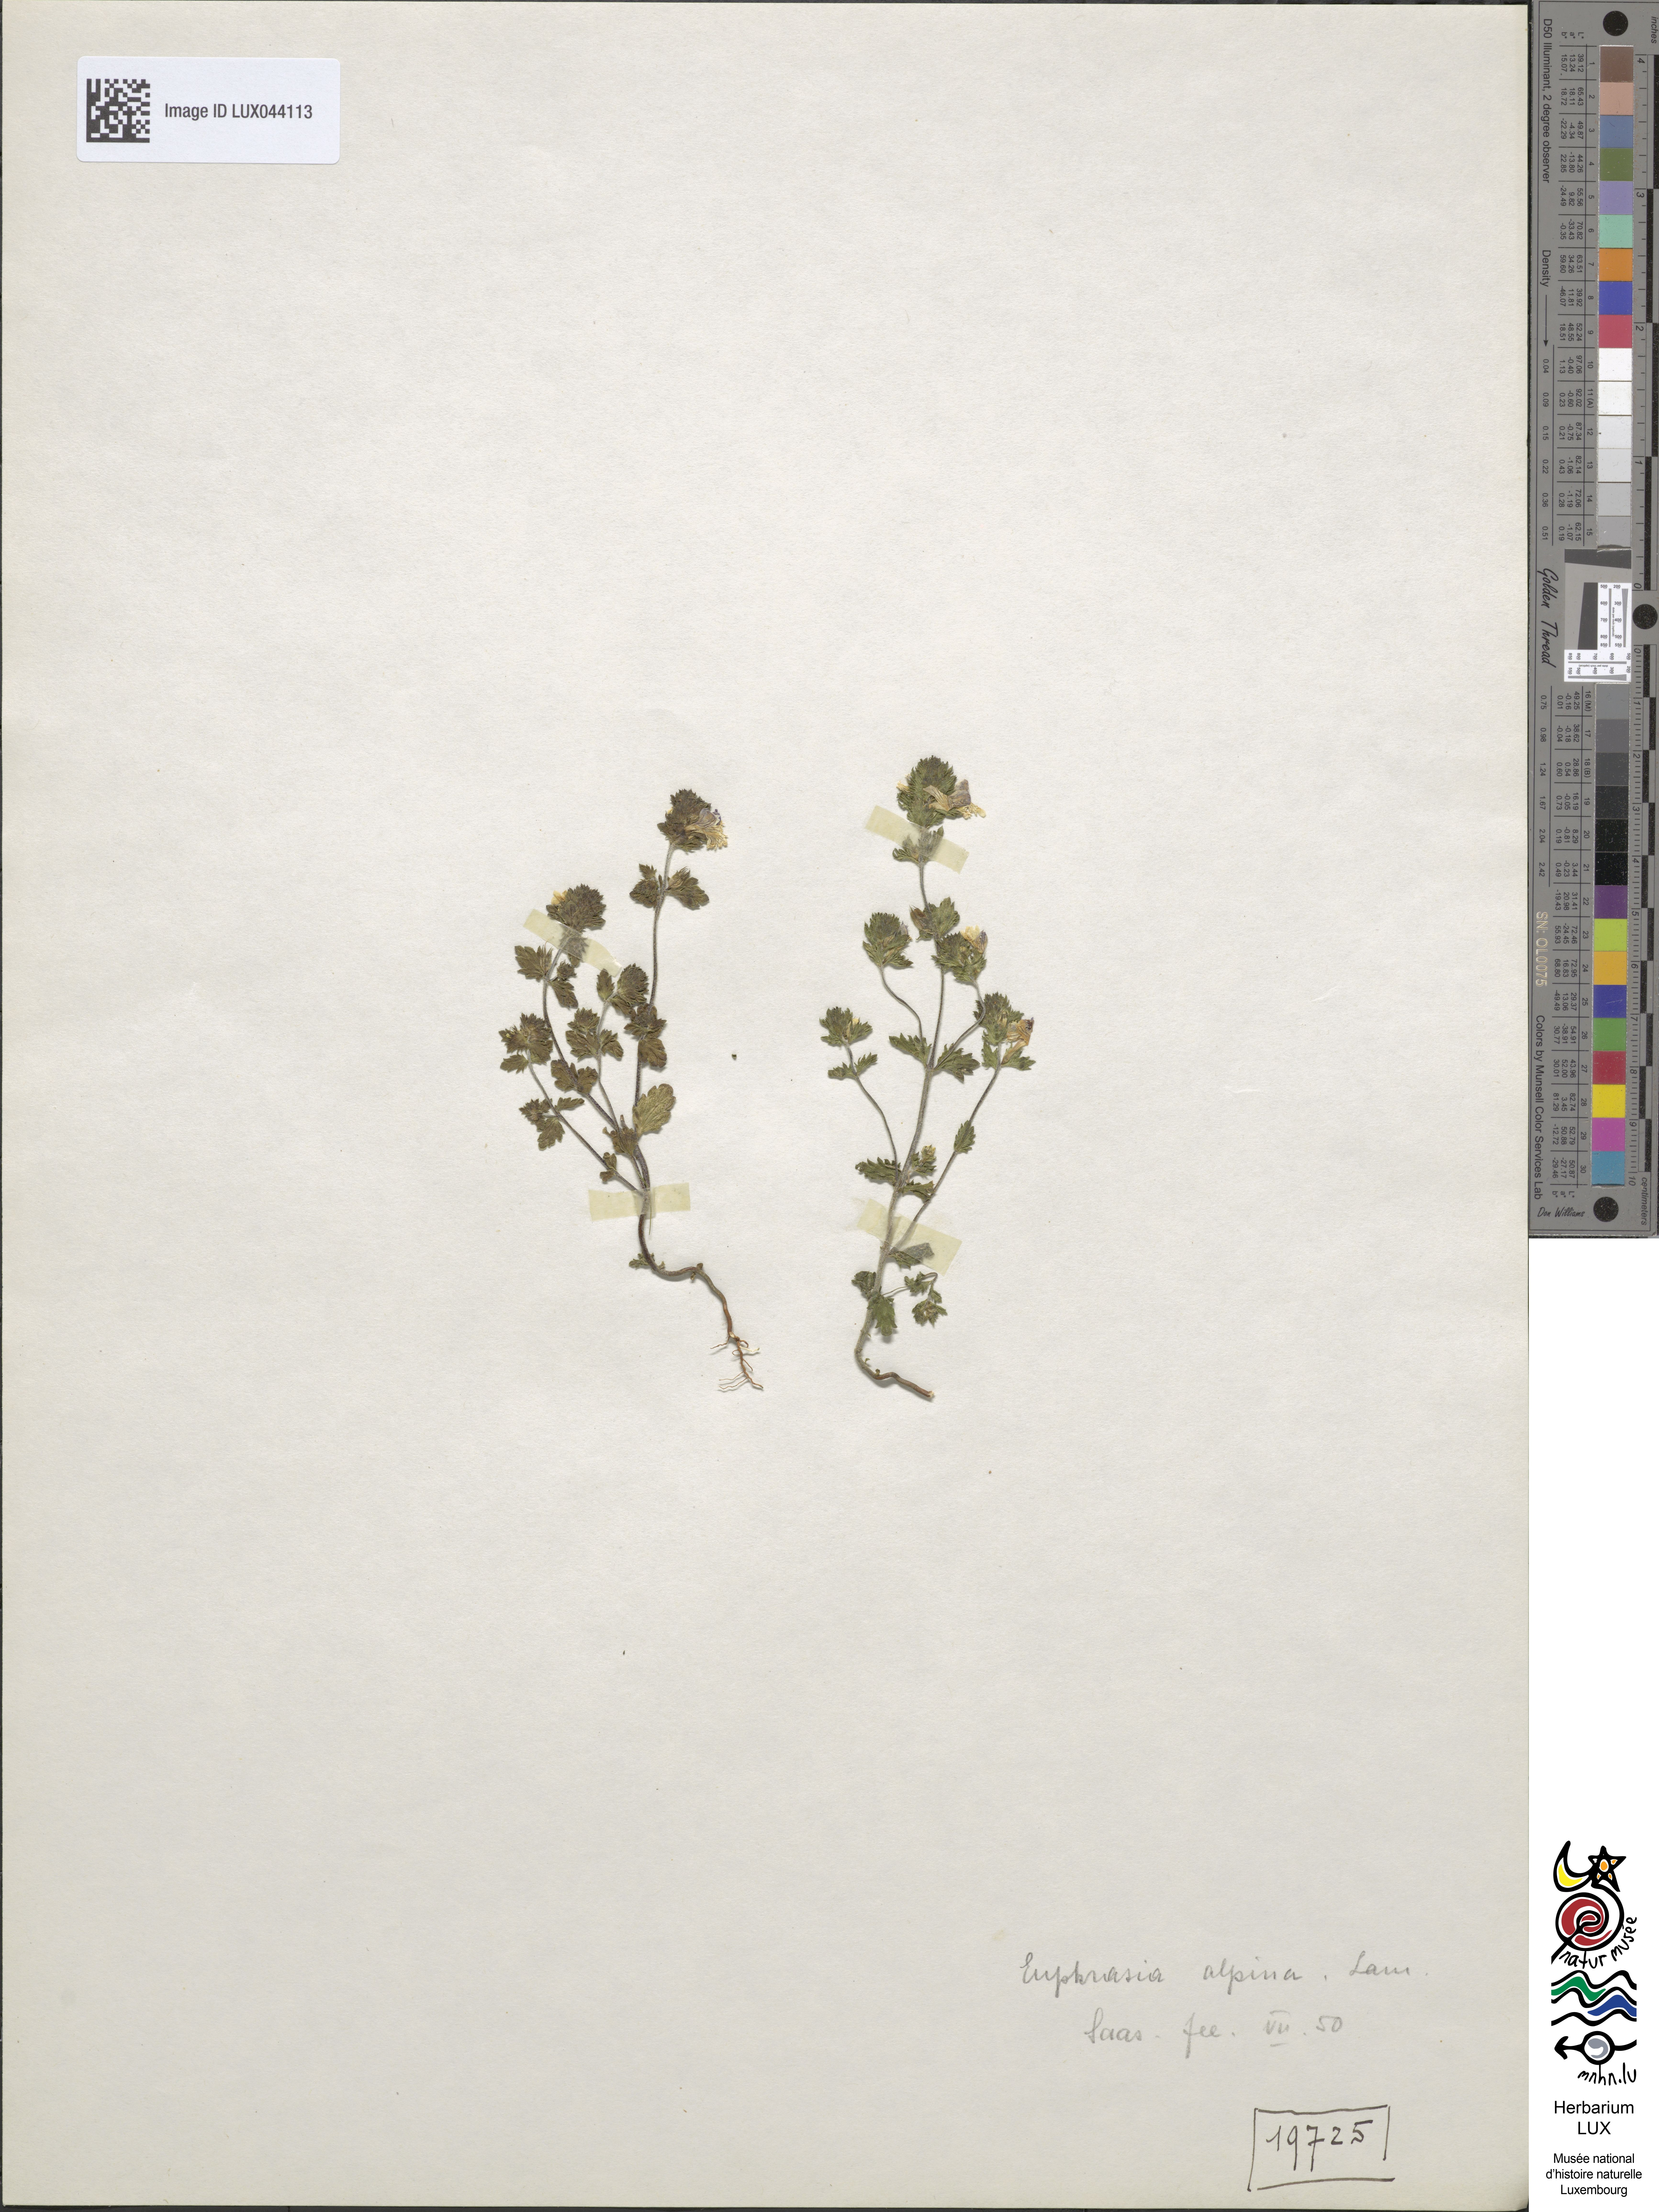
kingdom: Plantae
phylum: Tracheophyta
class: Magnoliopsida
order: Lamiales
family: Orobanchaceae
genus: Euphrasia
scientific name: Euphrasia alpina
